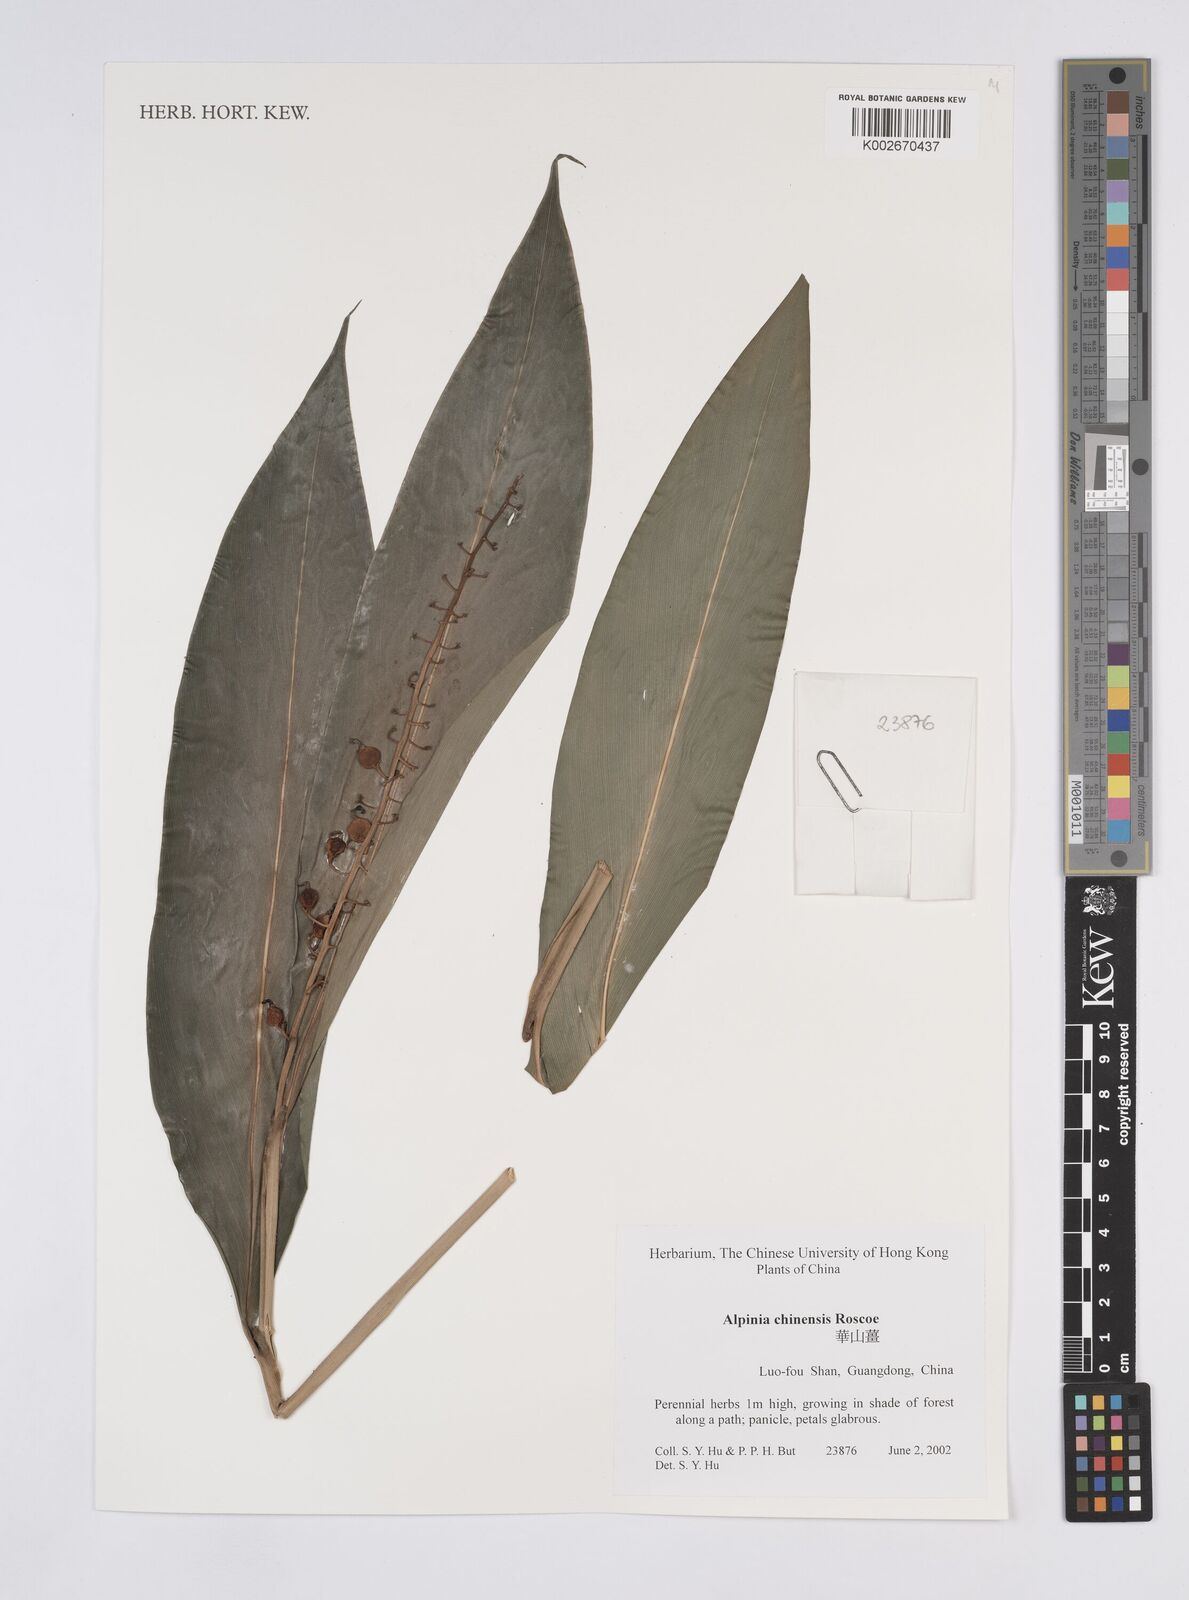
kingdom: Plantae
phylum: Tracheophyta
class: Liliopsida
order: Zingiberales
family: Zingiberaceae
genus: Alpinia
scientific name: Alpinia chinensis
